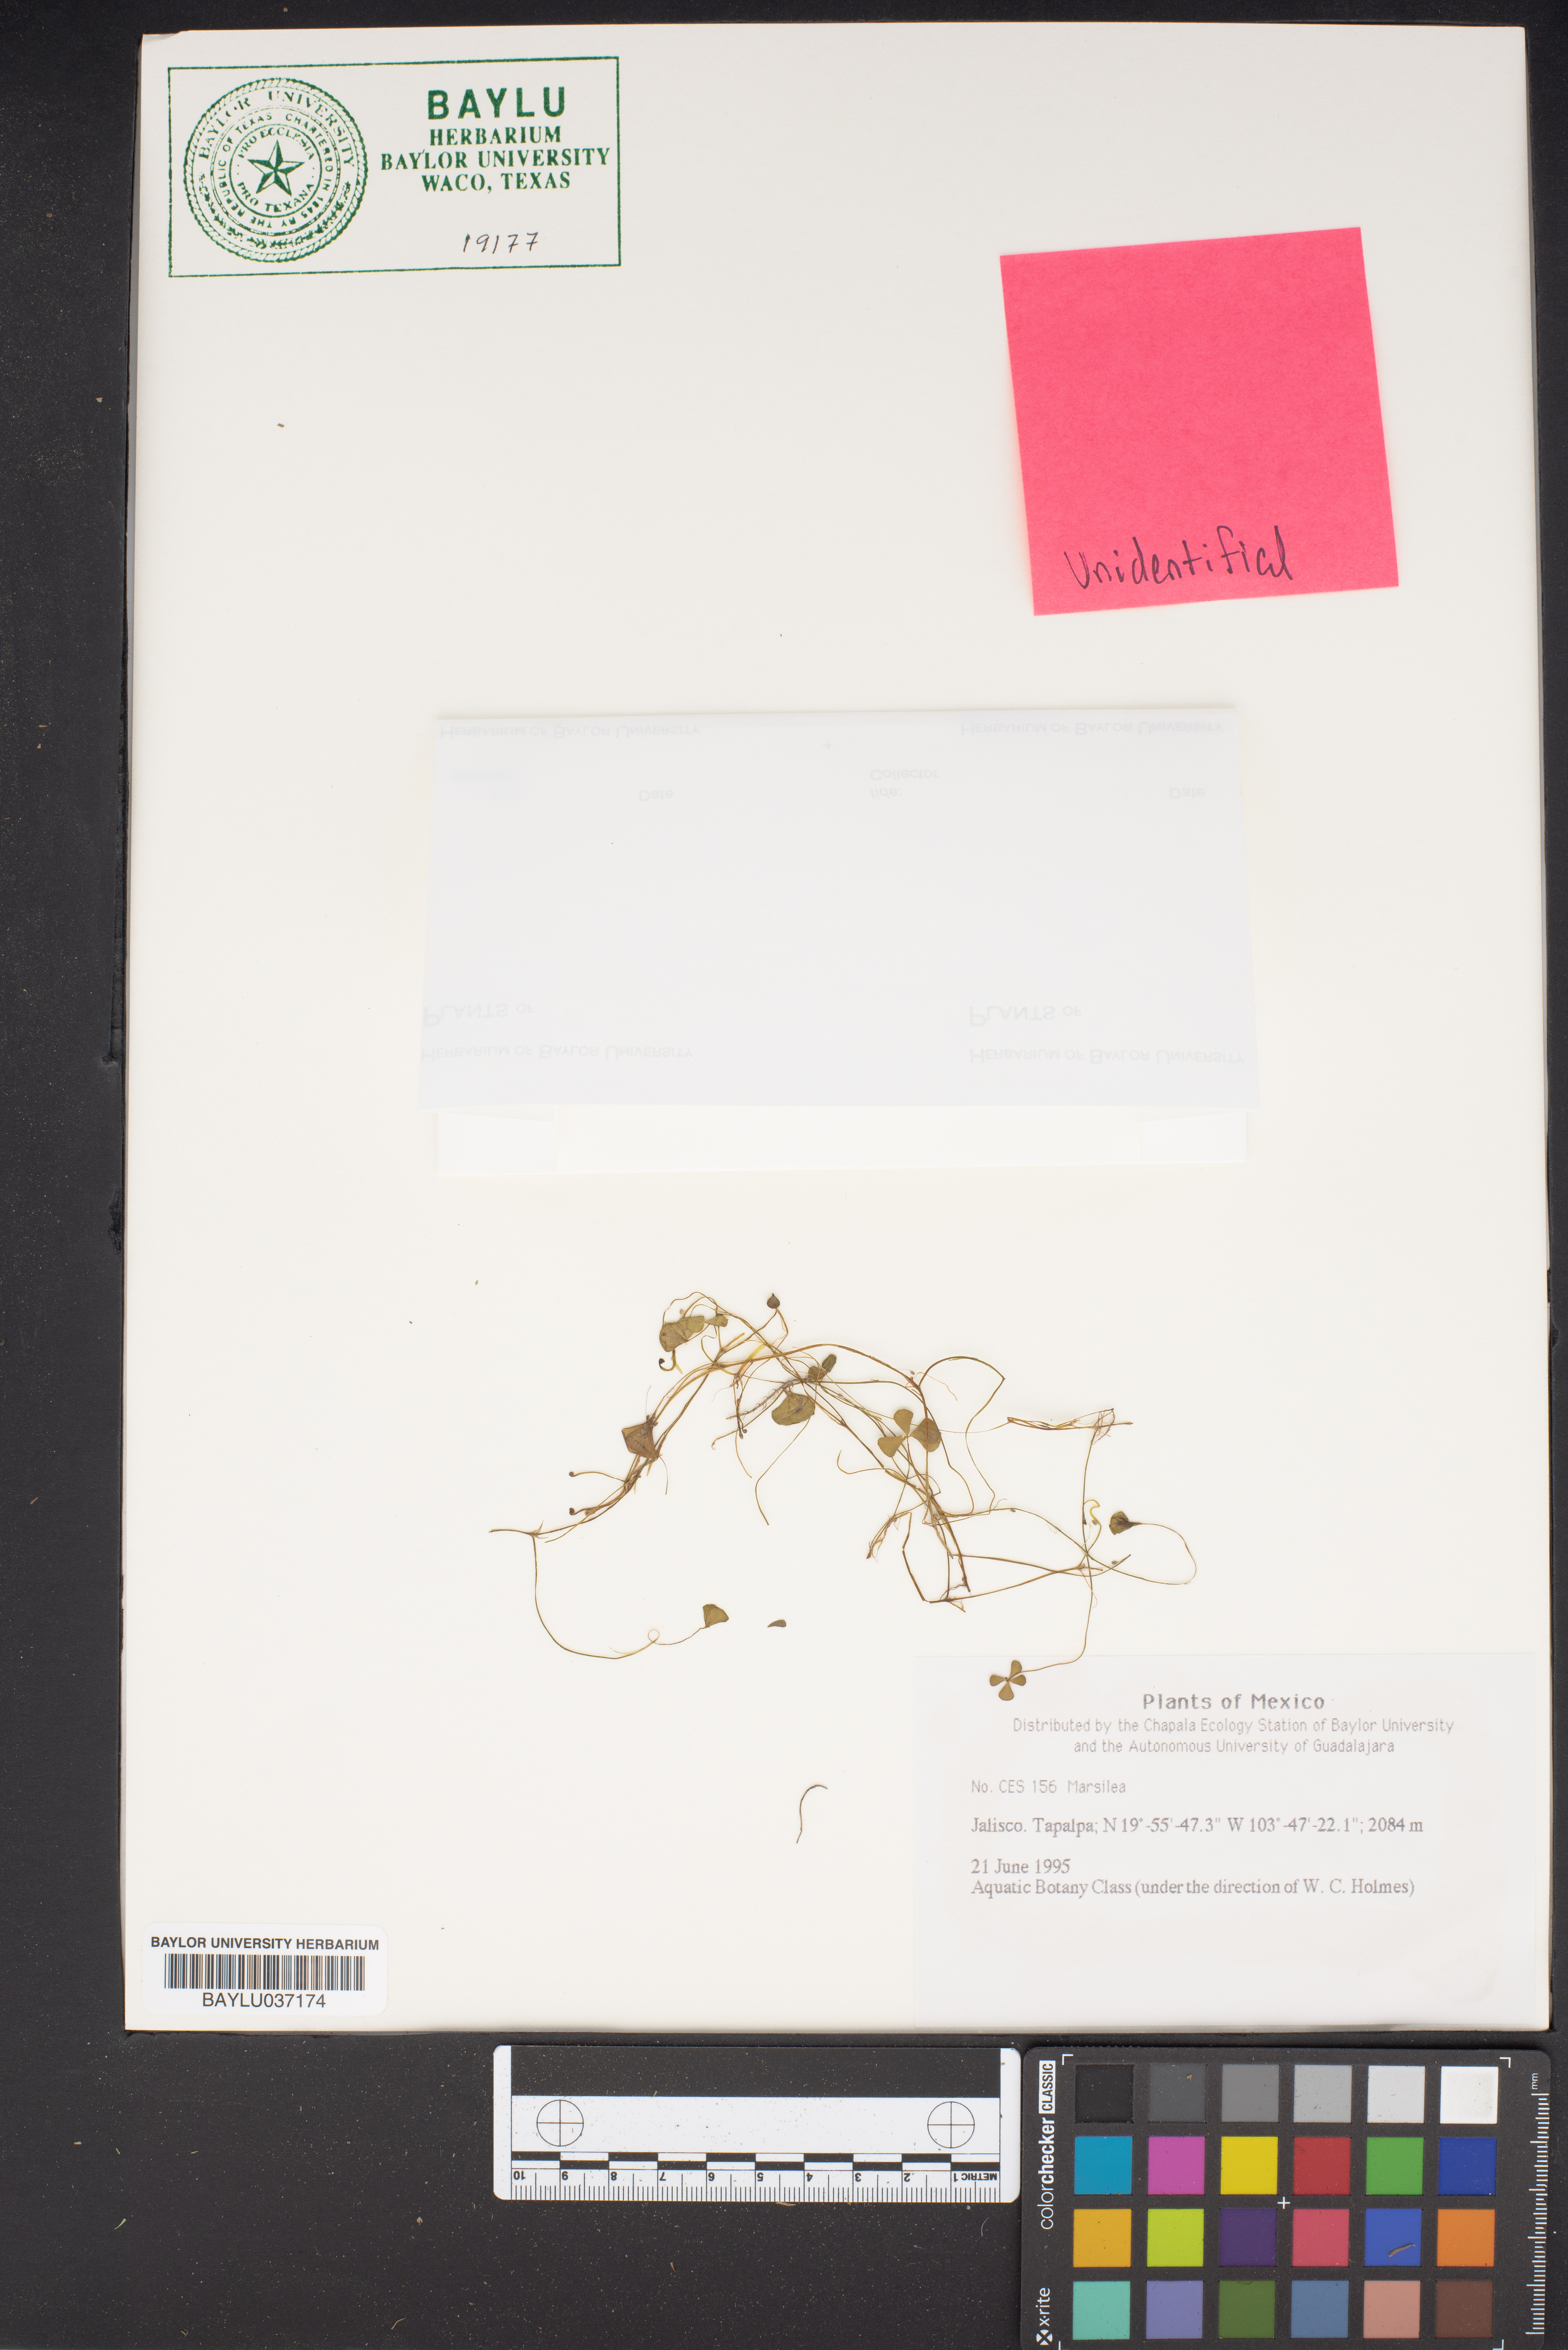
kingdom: Plantae
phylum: Tracheophyta
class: Polypodiopsida
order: Salviniales
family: Marsileaceae
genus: Marsilea
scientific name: Marsilea
